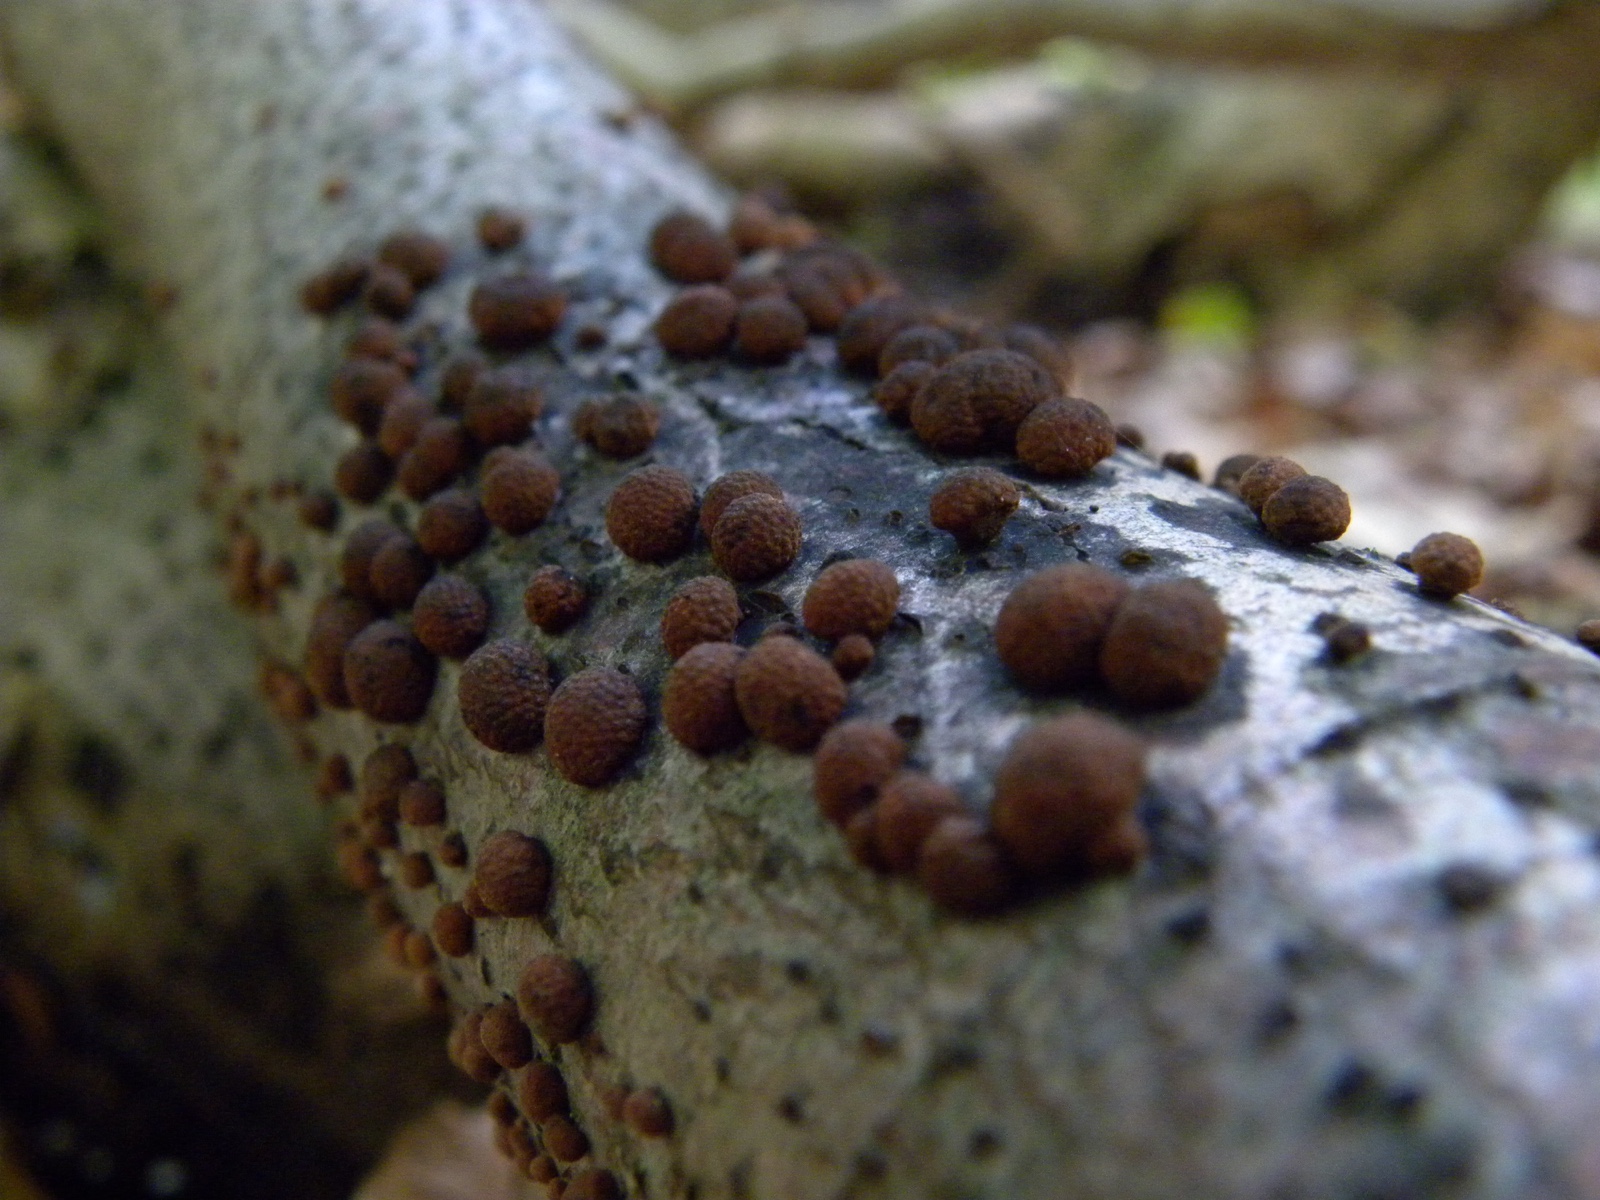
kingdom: Fungi
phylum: Ascomycota
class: Sordariomycetes
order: Xylariales
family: Hypoxylaceae
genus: Hypoxylon
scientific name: Hypoxylon fragiforme
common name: kuljordbær
